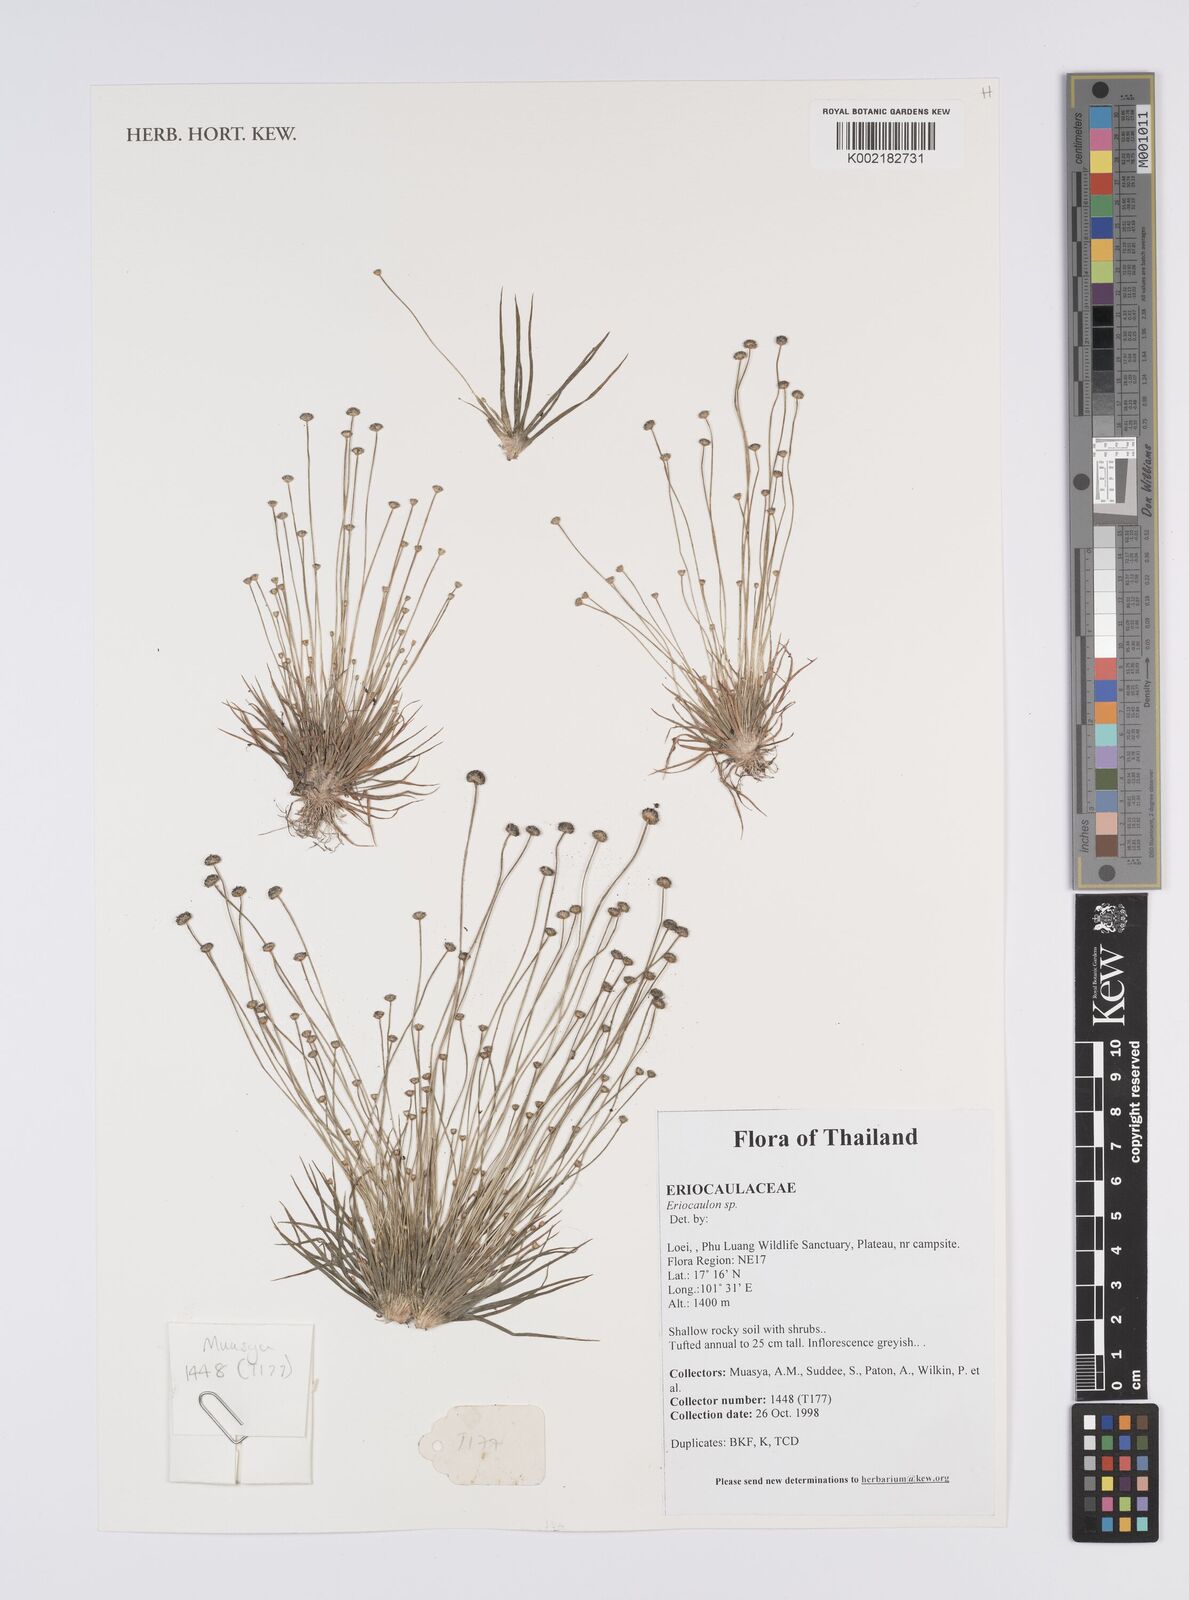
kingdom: Plantae
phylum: Tracheophyta
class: Liliopsida
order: Poales
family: Eriocaulaceae
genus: Eriocaulon
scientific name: Eriocaulon
